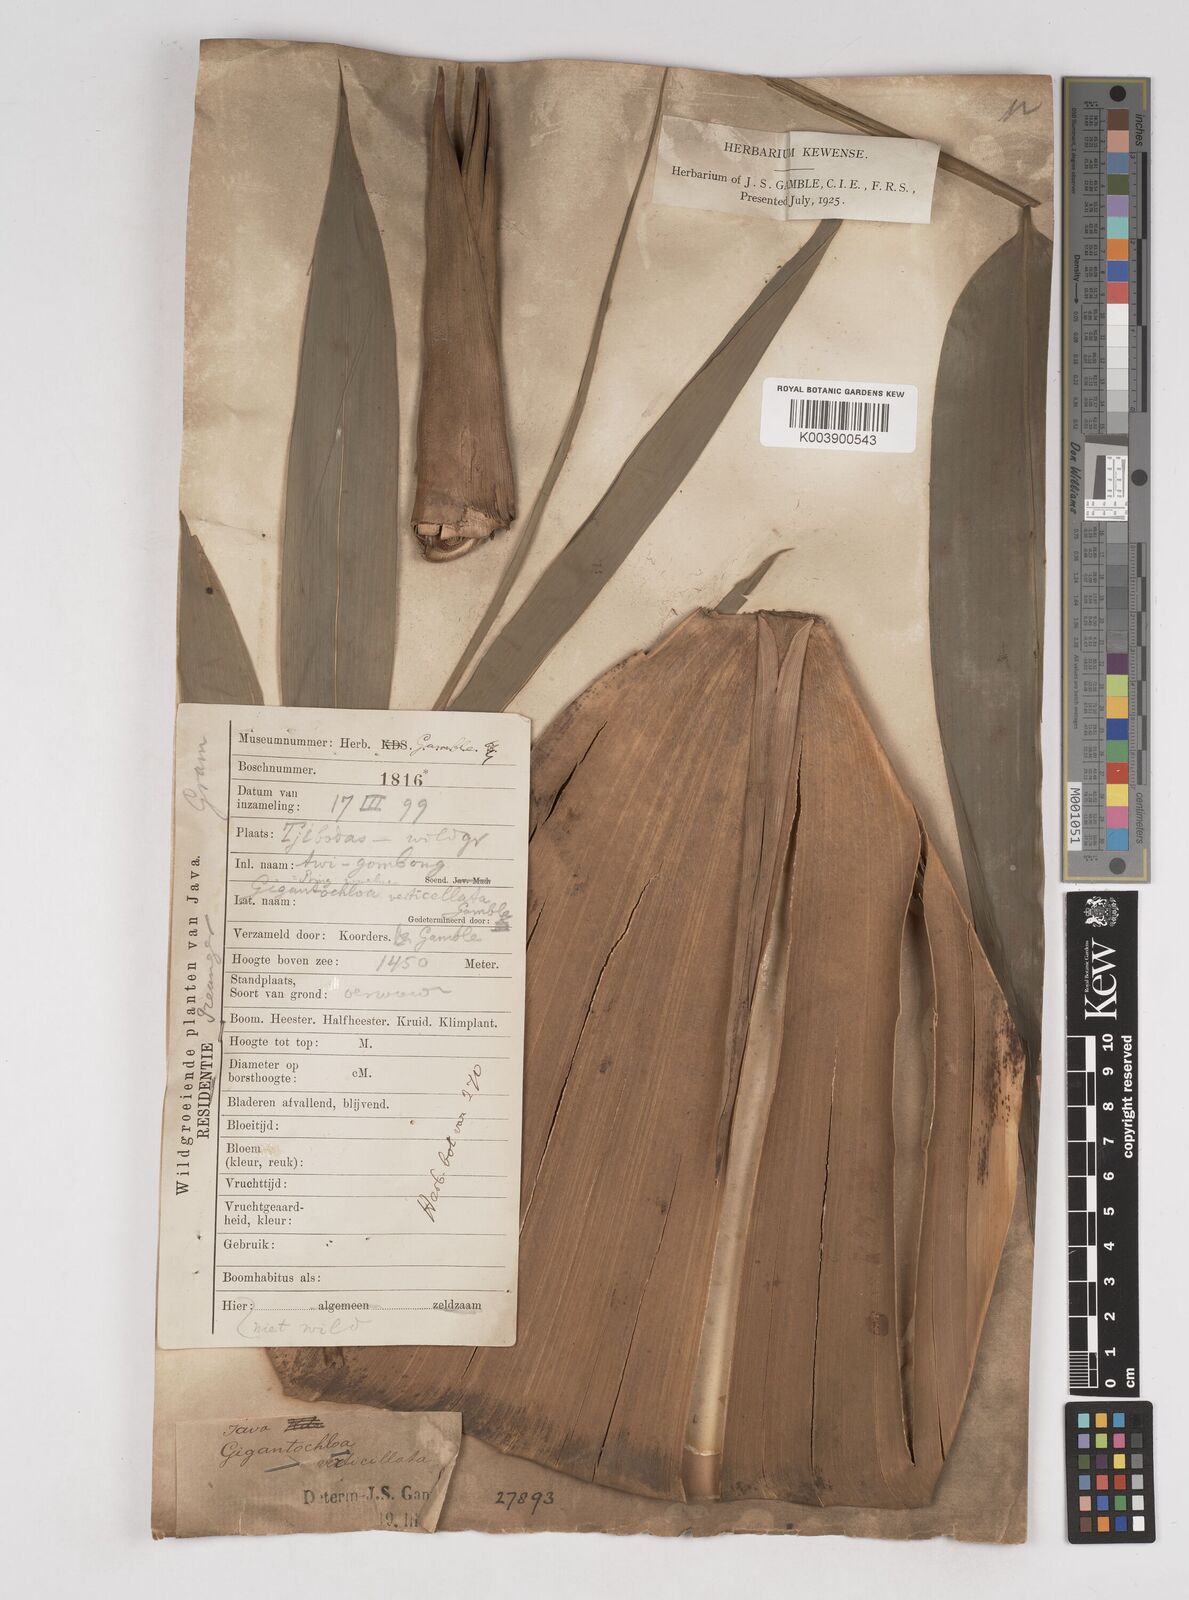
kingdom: Plantae
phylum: Tracheophyta
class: Liliopsida
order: Poales
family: Poaceae
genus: Gigantochloa
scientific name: Gigantochloa robusta
